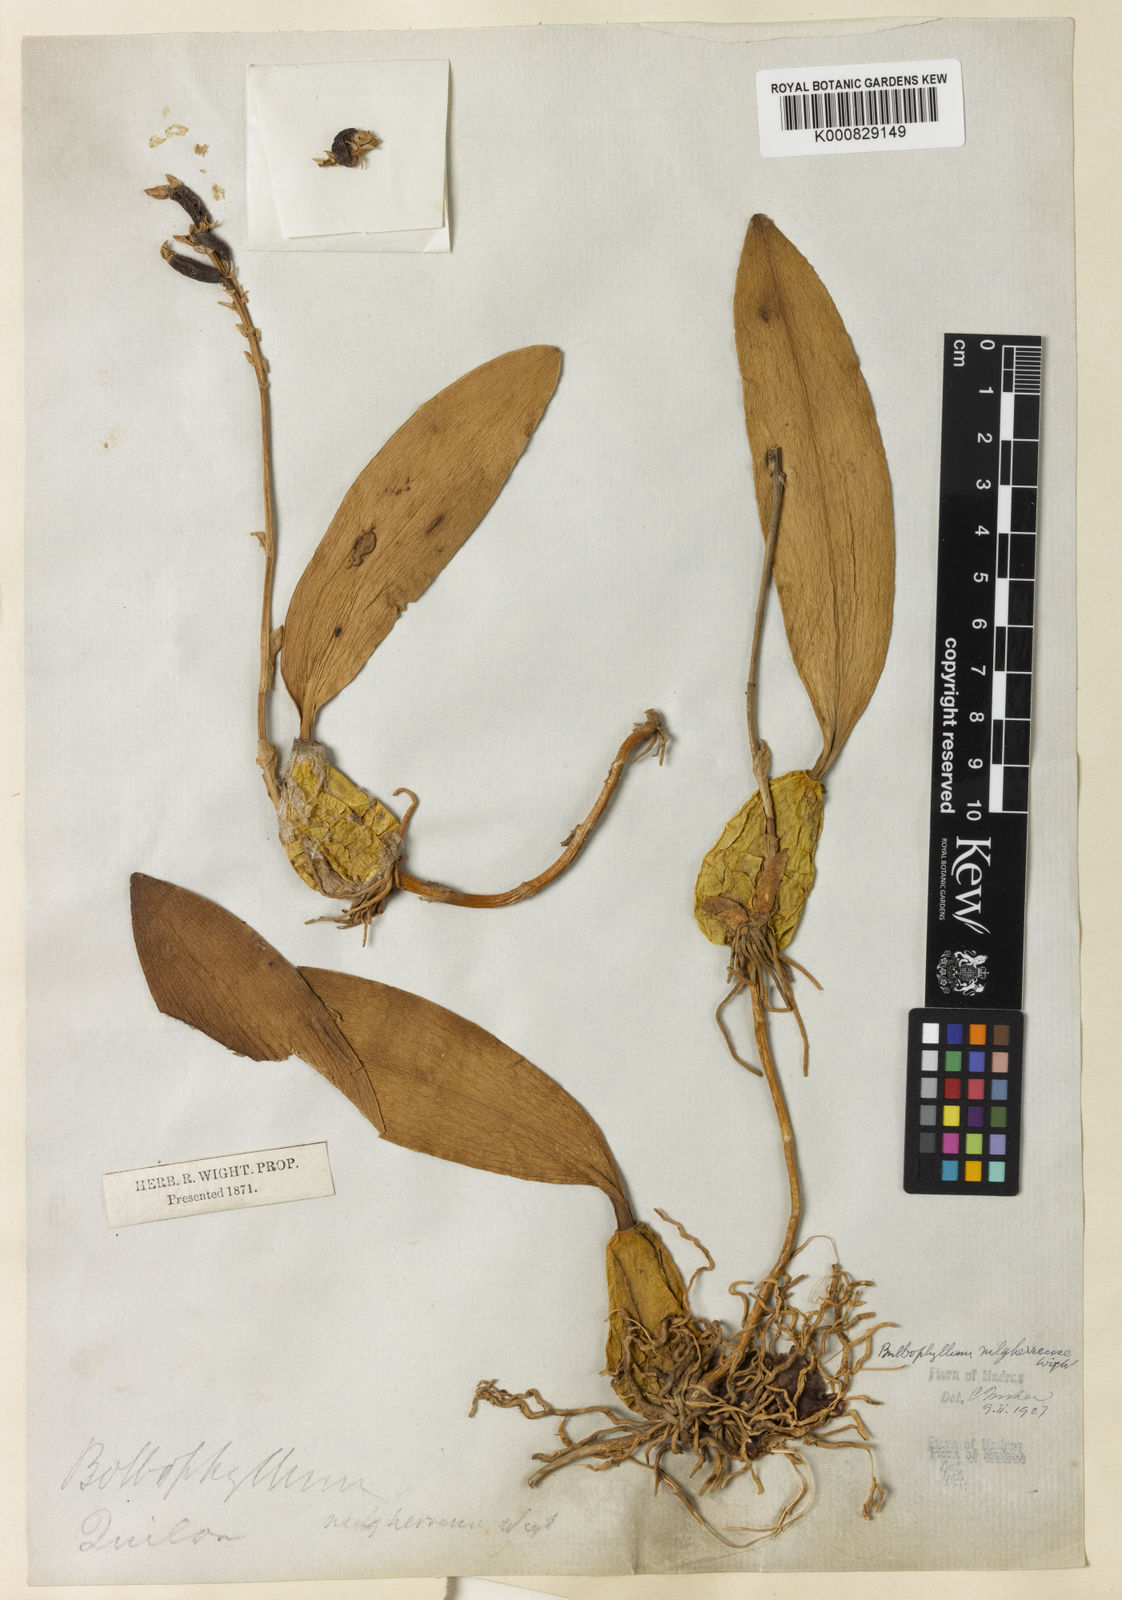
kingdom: Plantae
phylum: Tracheophyta
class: Liliopsida
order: Asparagales
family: Orchidaceae
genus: Bulbophyllum
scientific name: Bulbophyllum sterile
